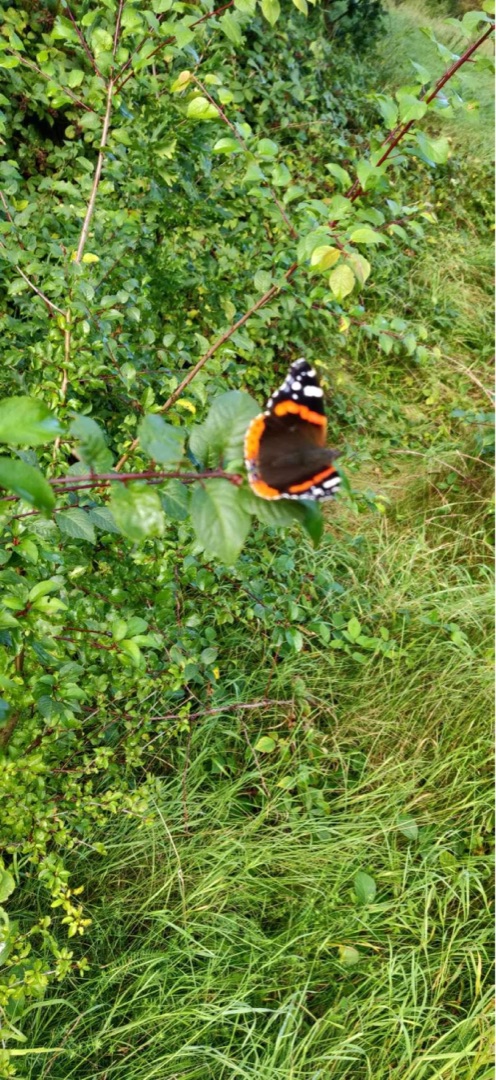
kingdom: Animalia
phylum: Arthropoda
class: Insecta
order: Lepidoptera
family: Nymphalidae
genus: Vanessa
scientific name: Vanessa atalanta
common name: Admiral
